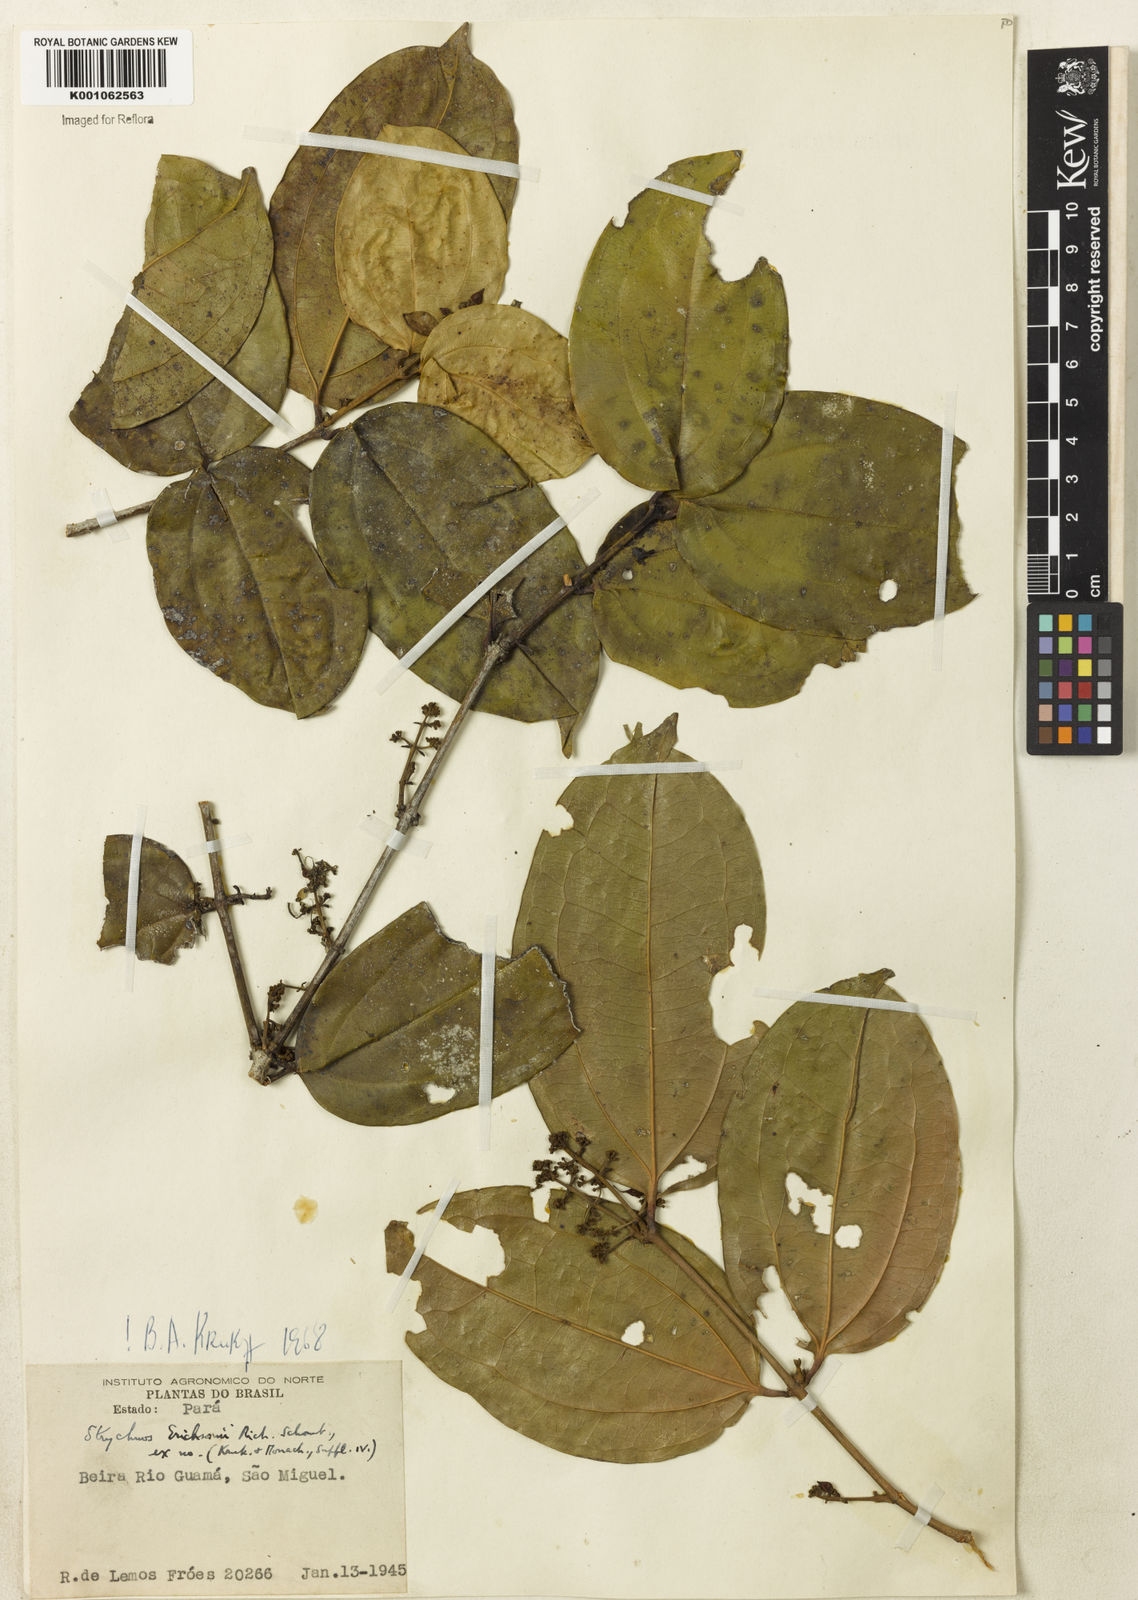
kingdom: Plantae
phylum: Tracheophyta
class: Magnoliopsida
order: Gentianales
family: Loganiaceae
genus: Strychnos
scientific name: Strychnos erichsonii
